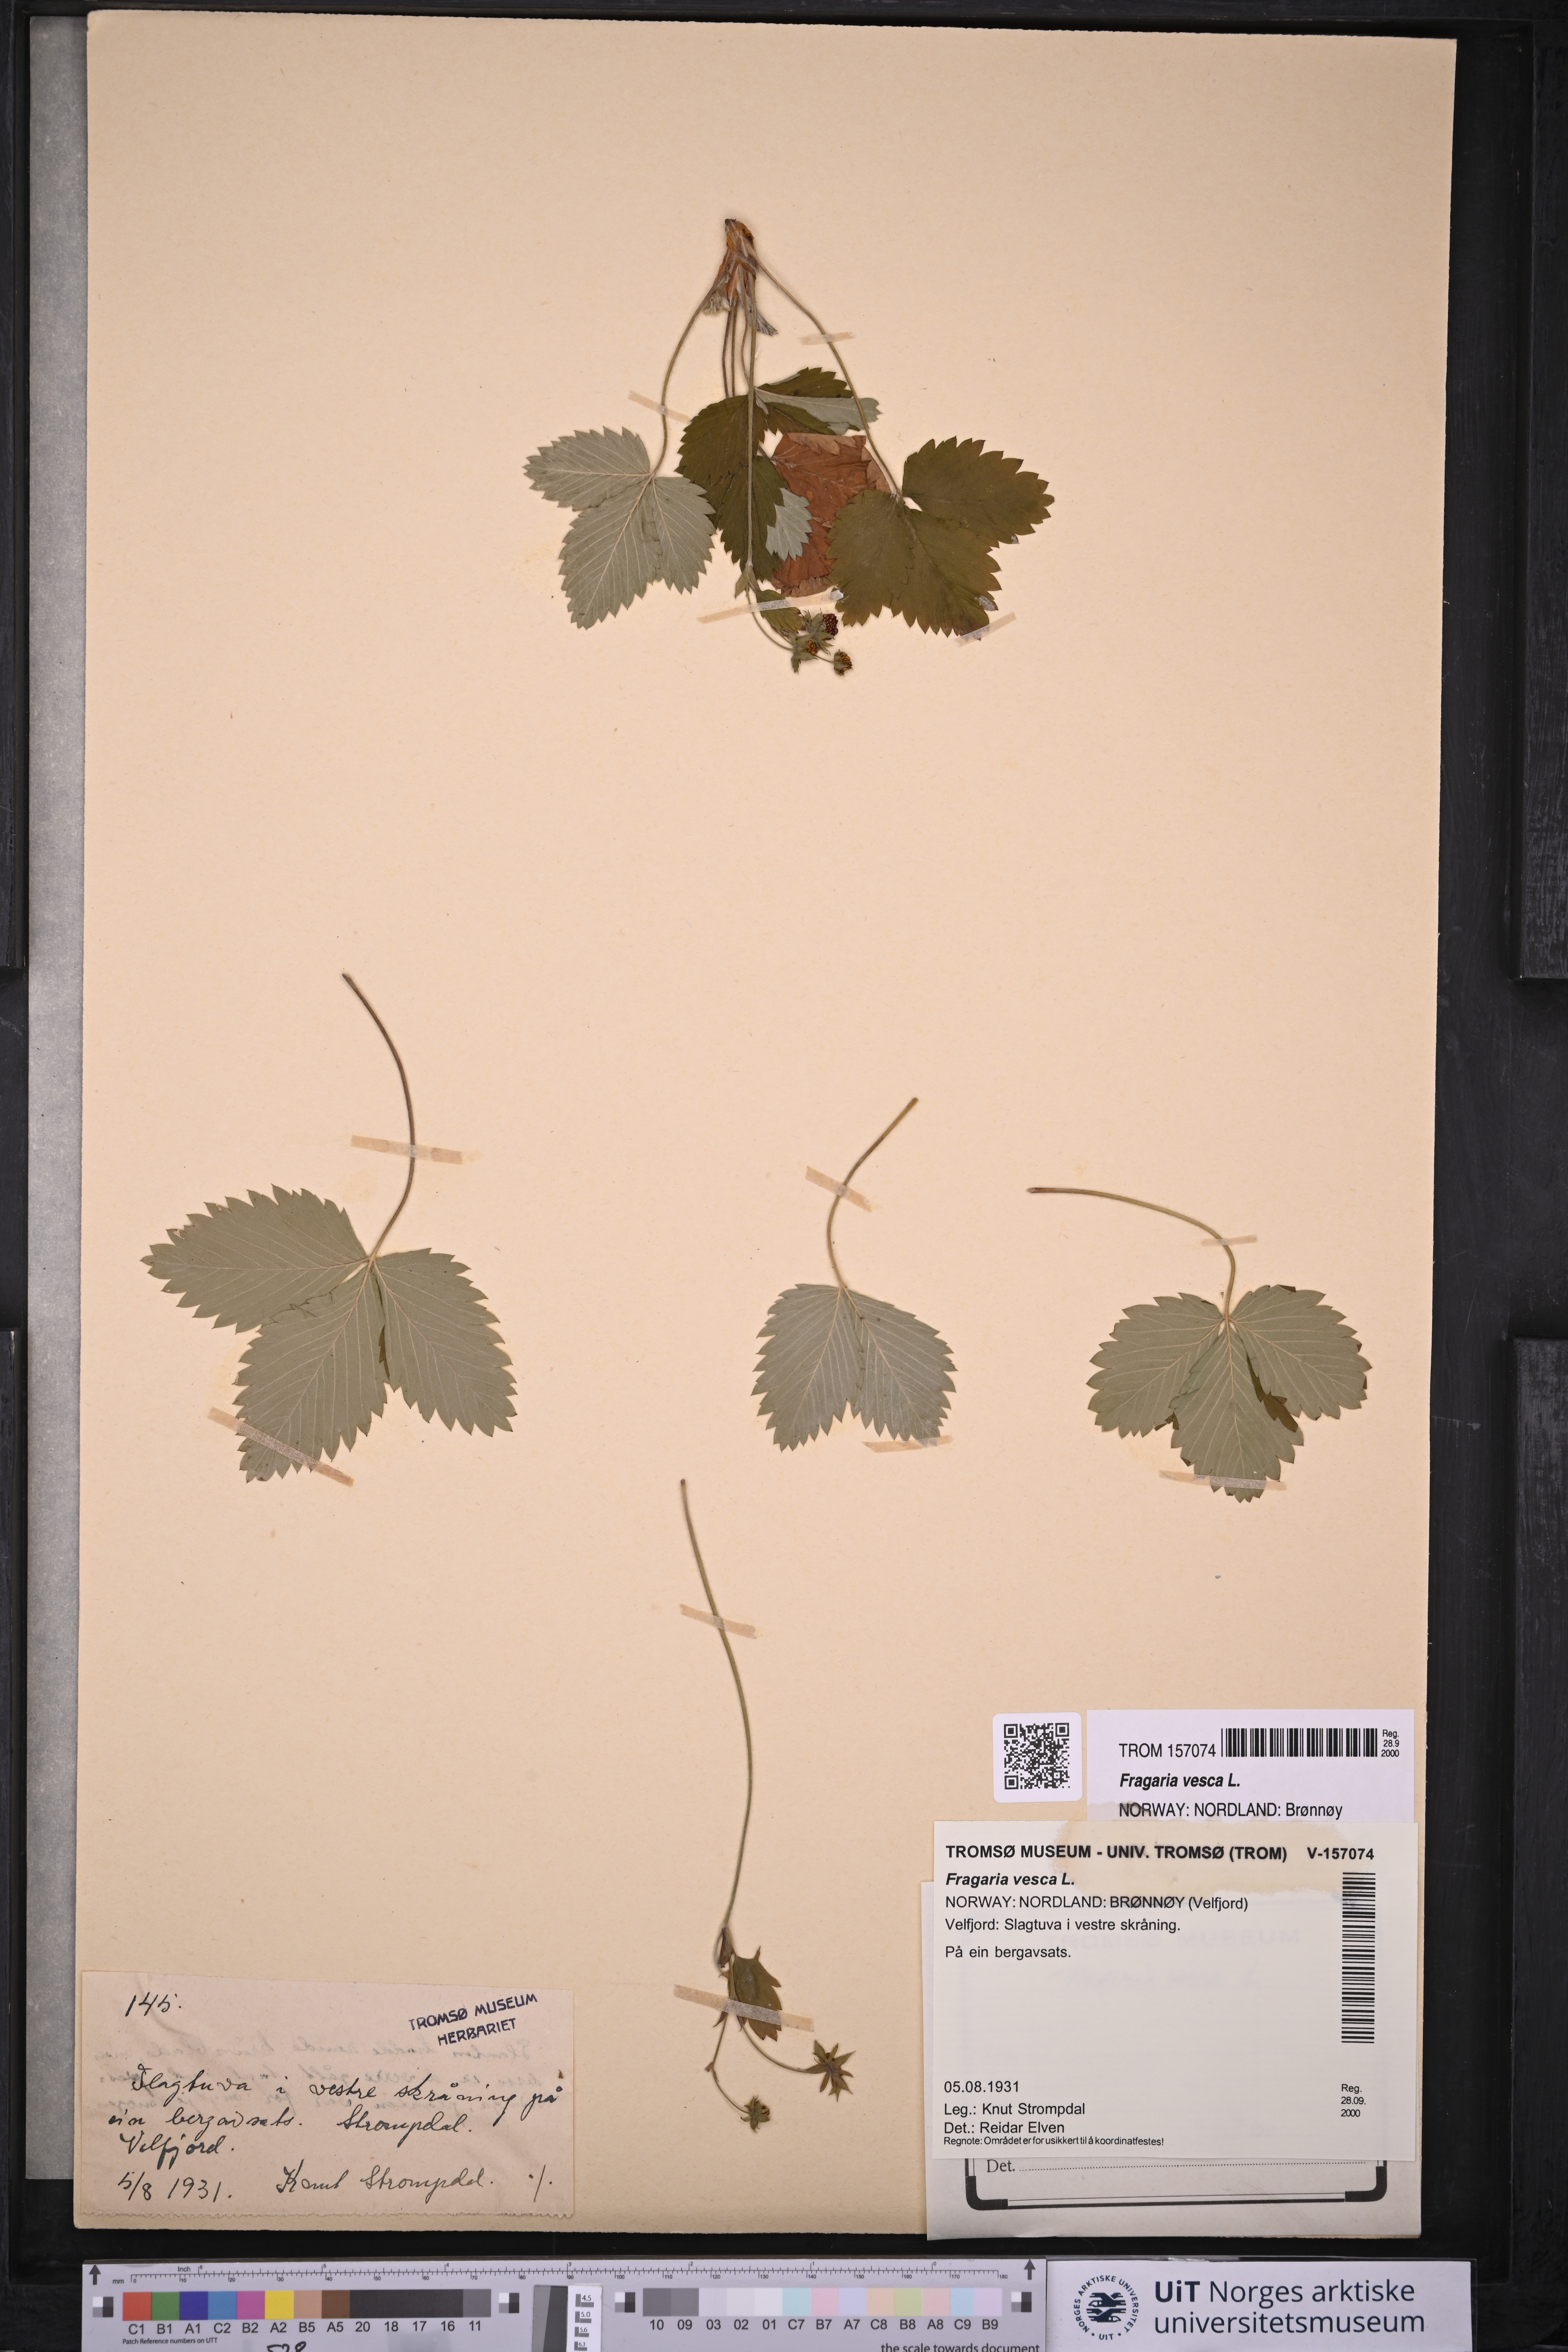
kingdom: Plantae
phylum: Tracheophyta
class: Magnoliopsida
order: Rosales
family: Rosaceae
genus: Fragaria
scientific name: Fragaria vesca
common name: Wild strawberry
